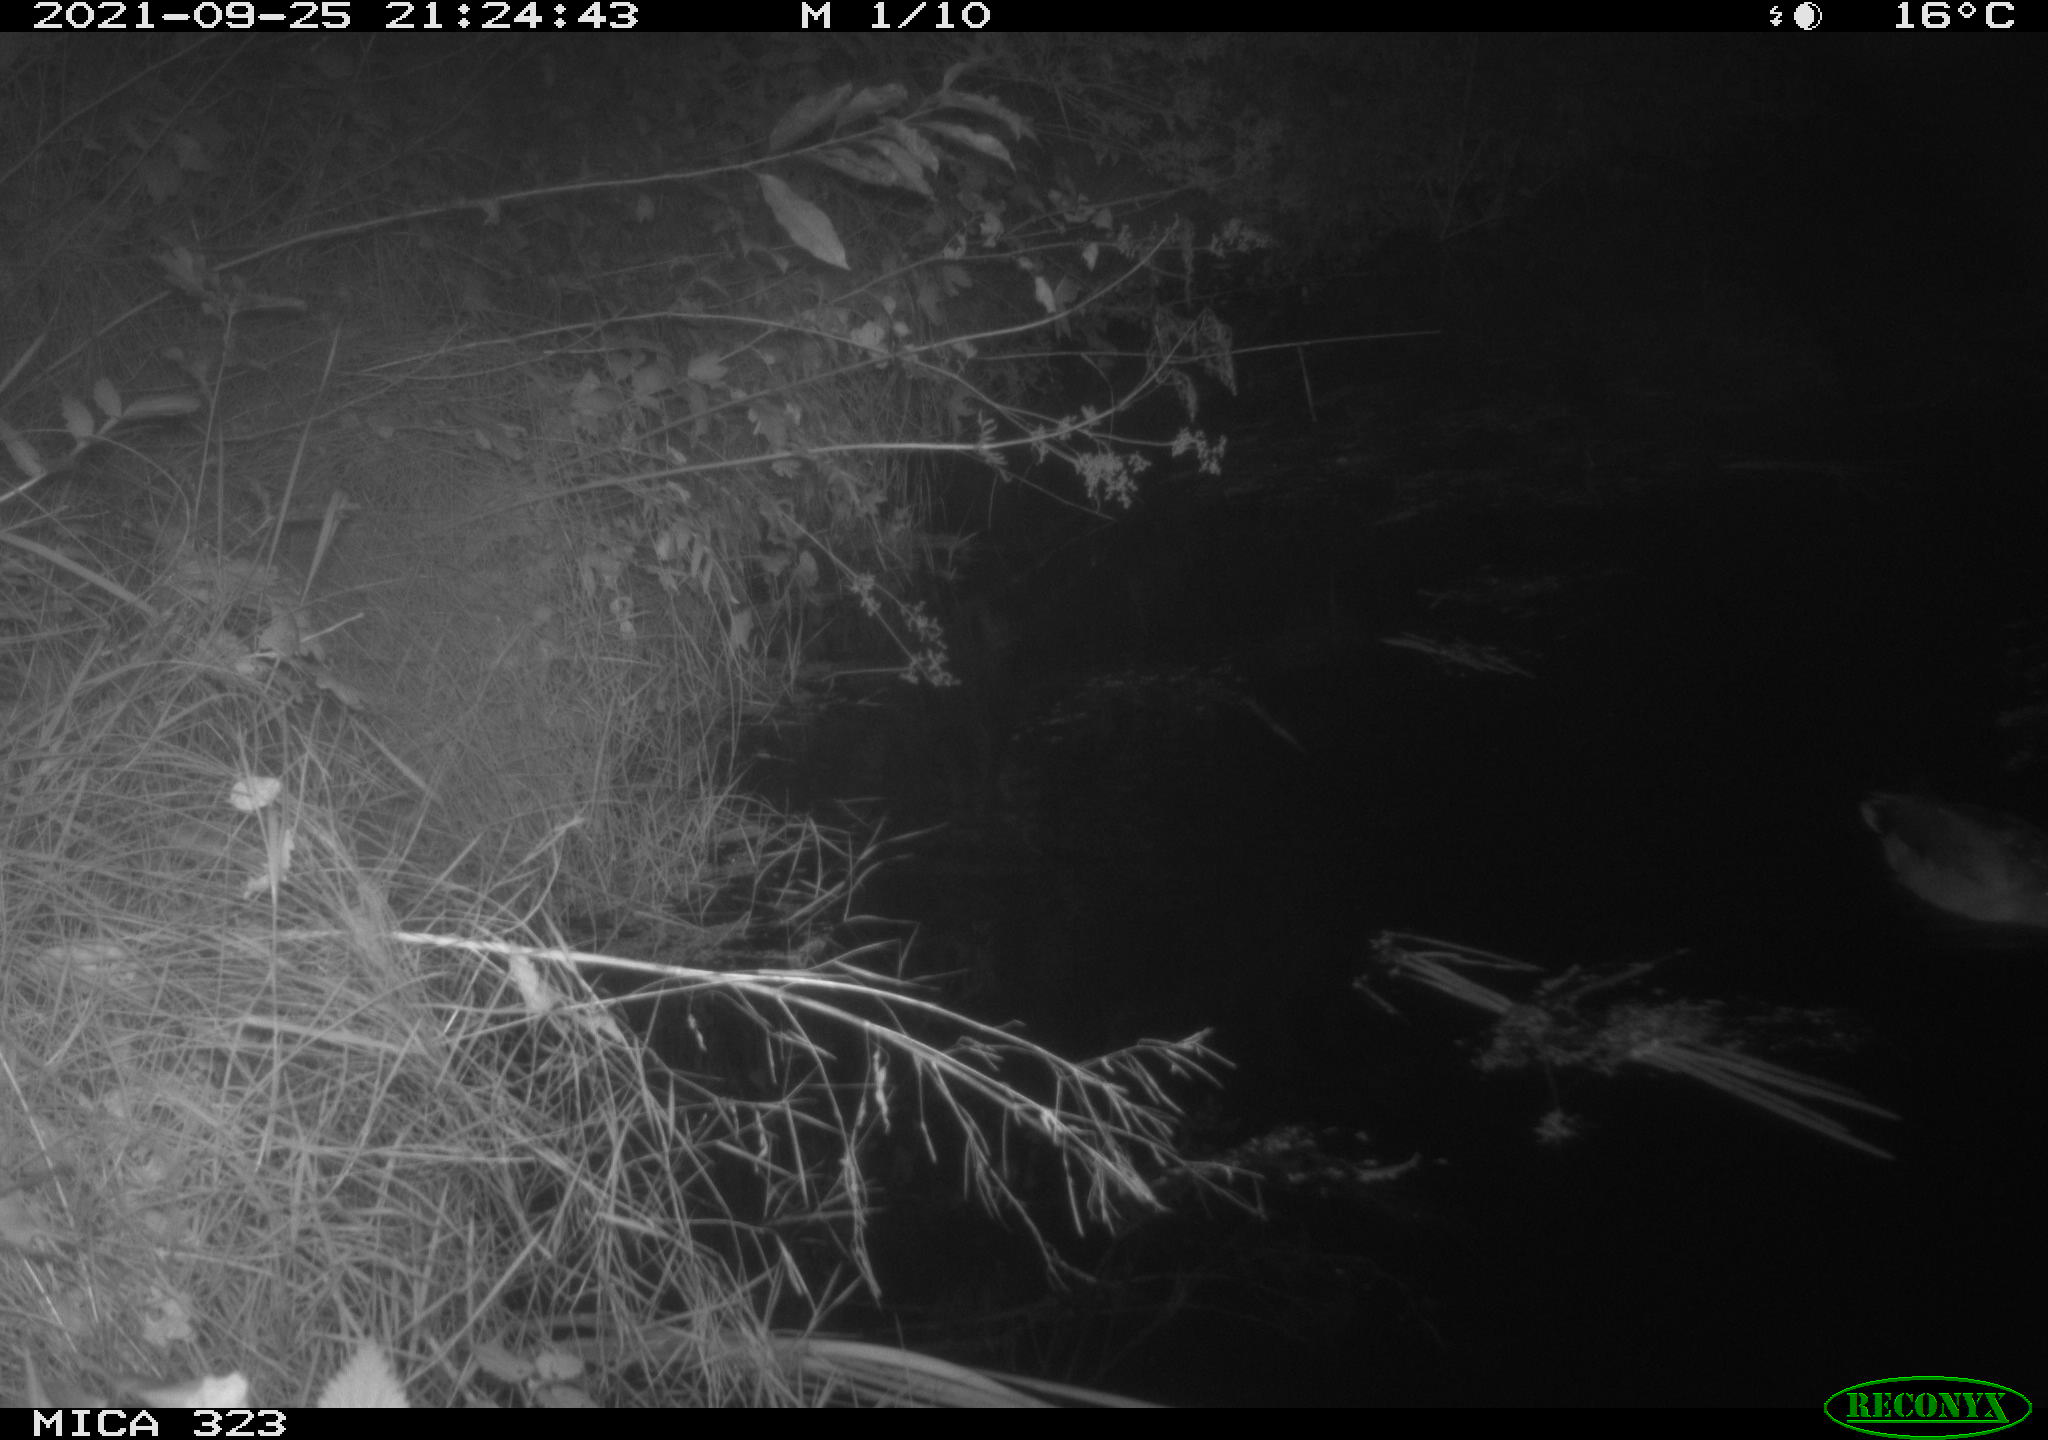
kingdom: Animalia
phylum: Chordata
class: Aves
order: Anseriformes
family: Anatidae
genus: Anas
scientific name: Anas
